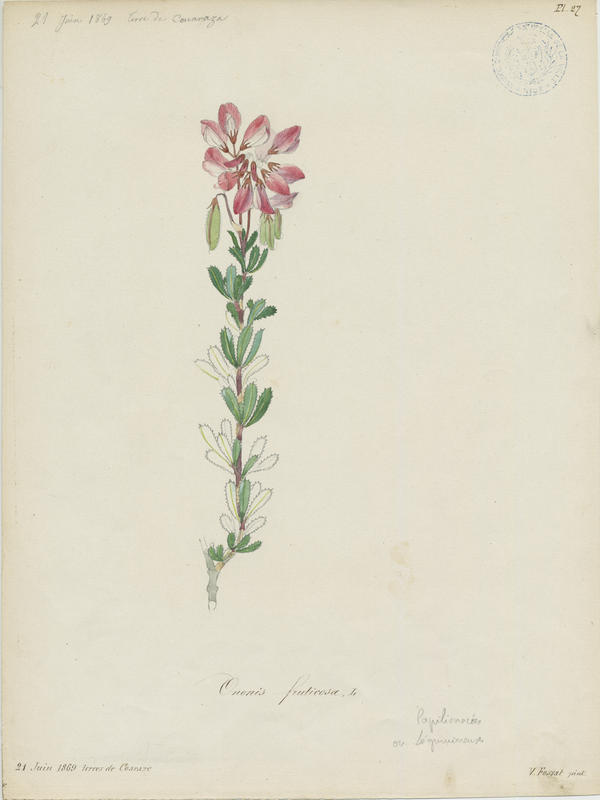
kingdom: Plantae
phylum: Tracheophyta
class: Magnoliopsida
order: Fabales
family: Fabaceae
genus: Ononis
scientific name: Ononis fruticosa
